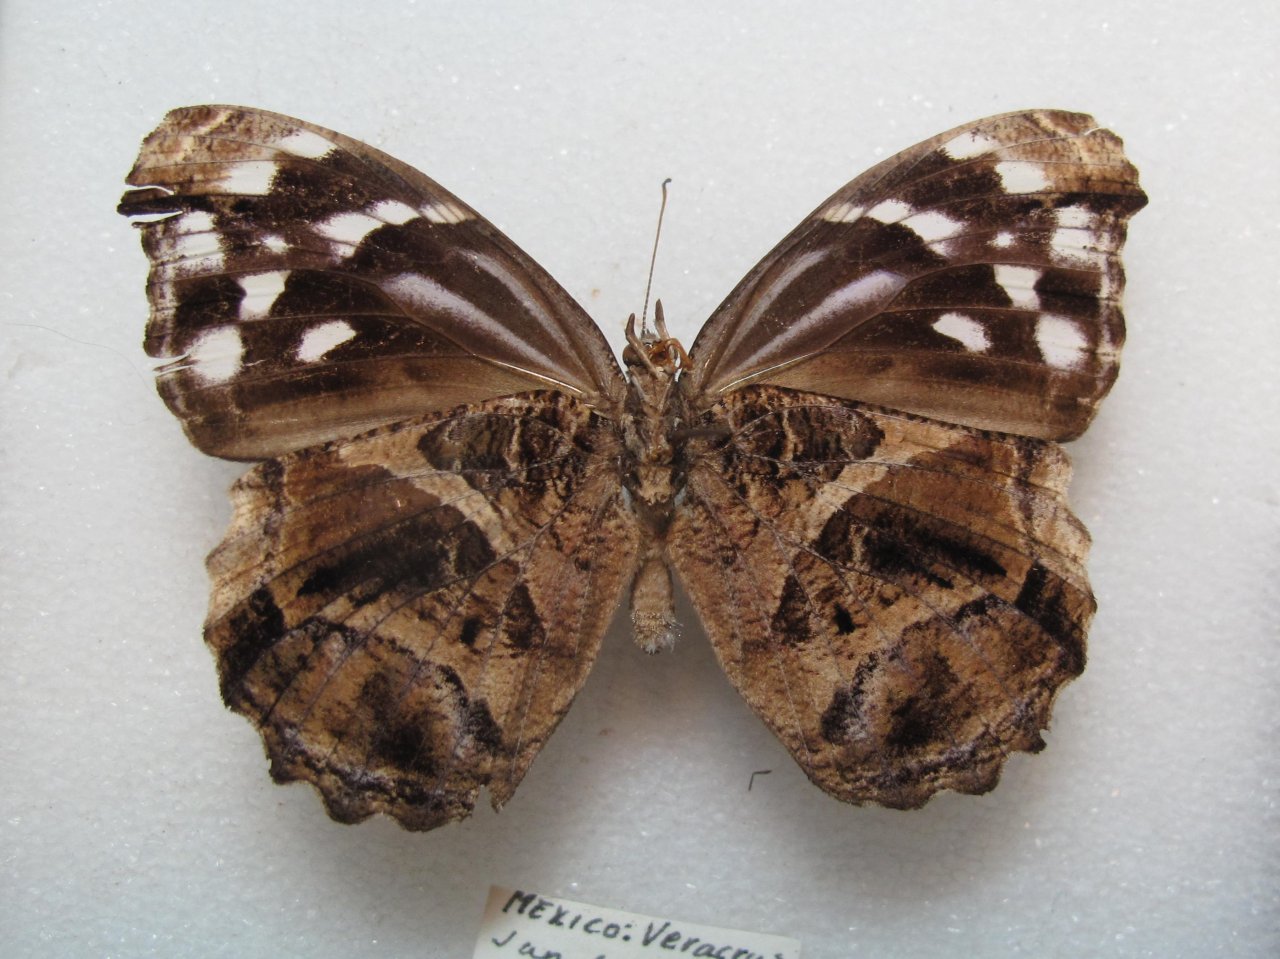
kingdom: Animalia
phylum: Arthropoda
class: Insecta
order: Lepidoptera
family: Nymphalidae
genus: Myscelia
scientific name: Myscelia ethusa
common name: Mexican Bluewing
